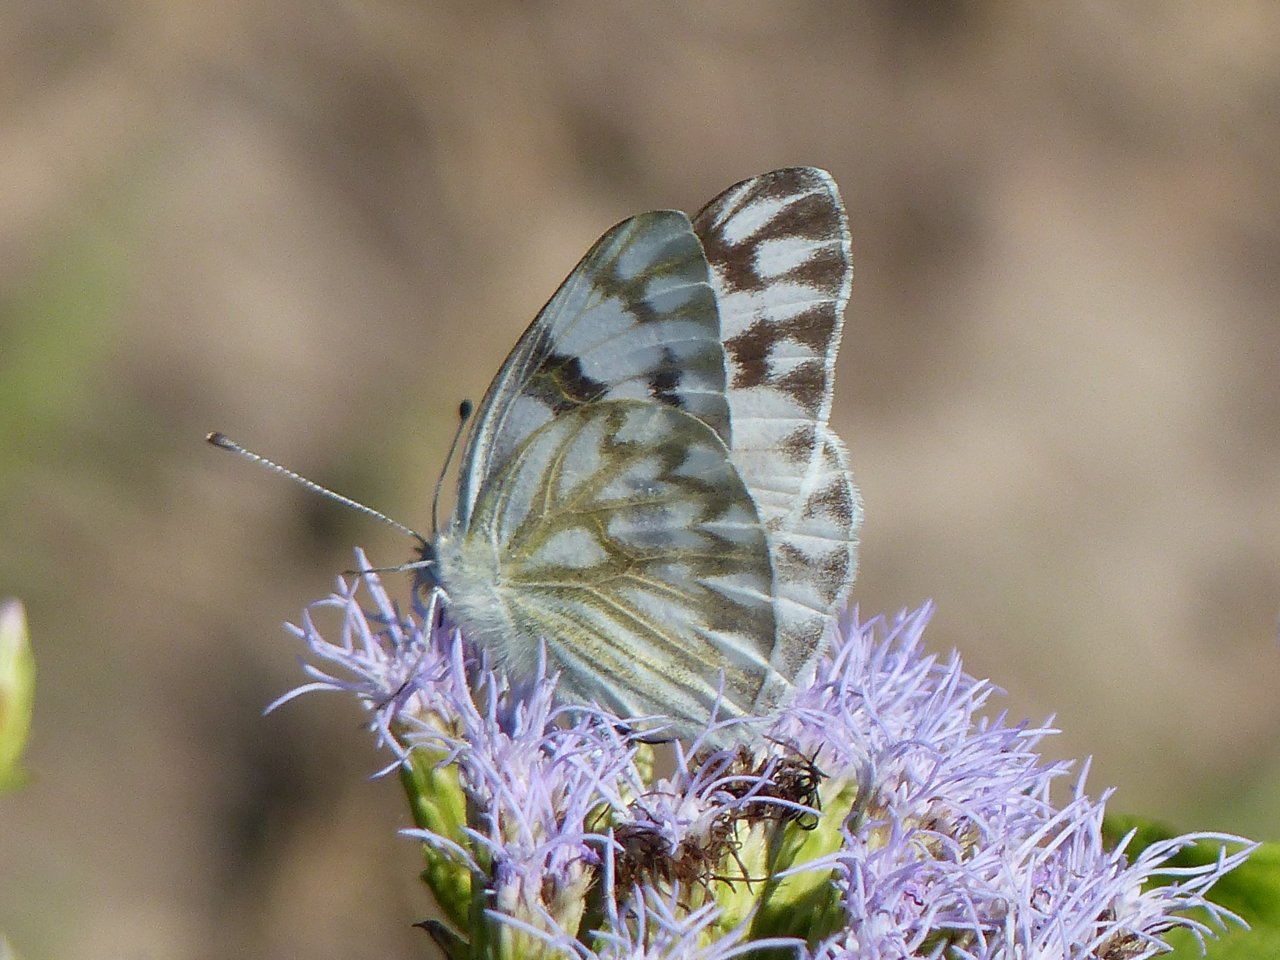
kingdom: Animalia
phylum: Arthropoda
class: Insecta
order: Lepidoptera
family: Pieridae
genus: Pontia
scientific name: Pontia protodice
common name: Checkered White
